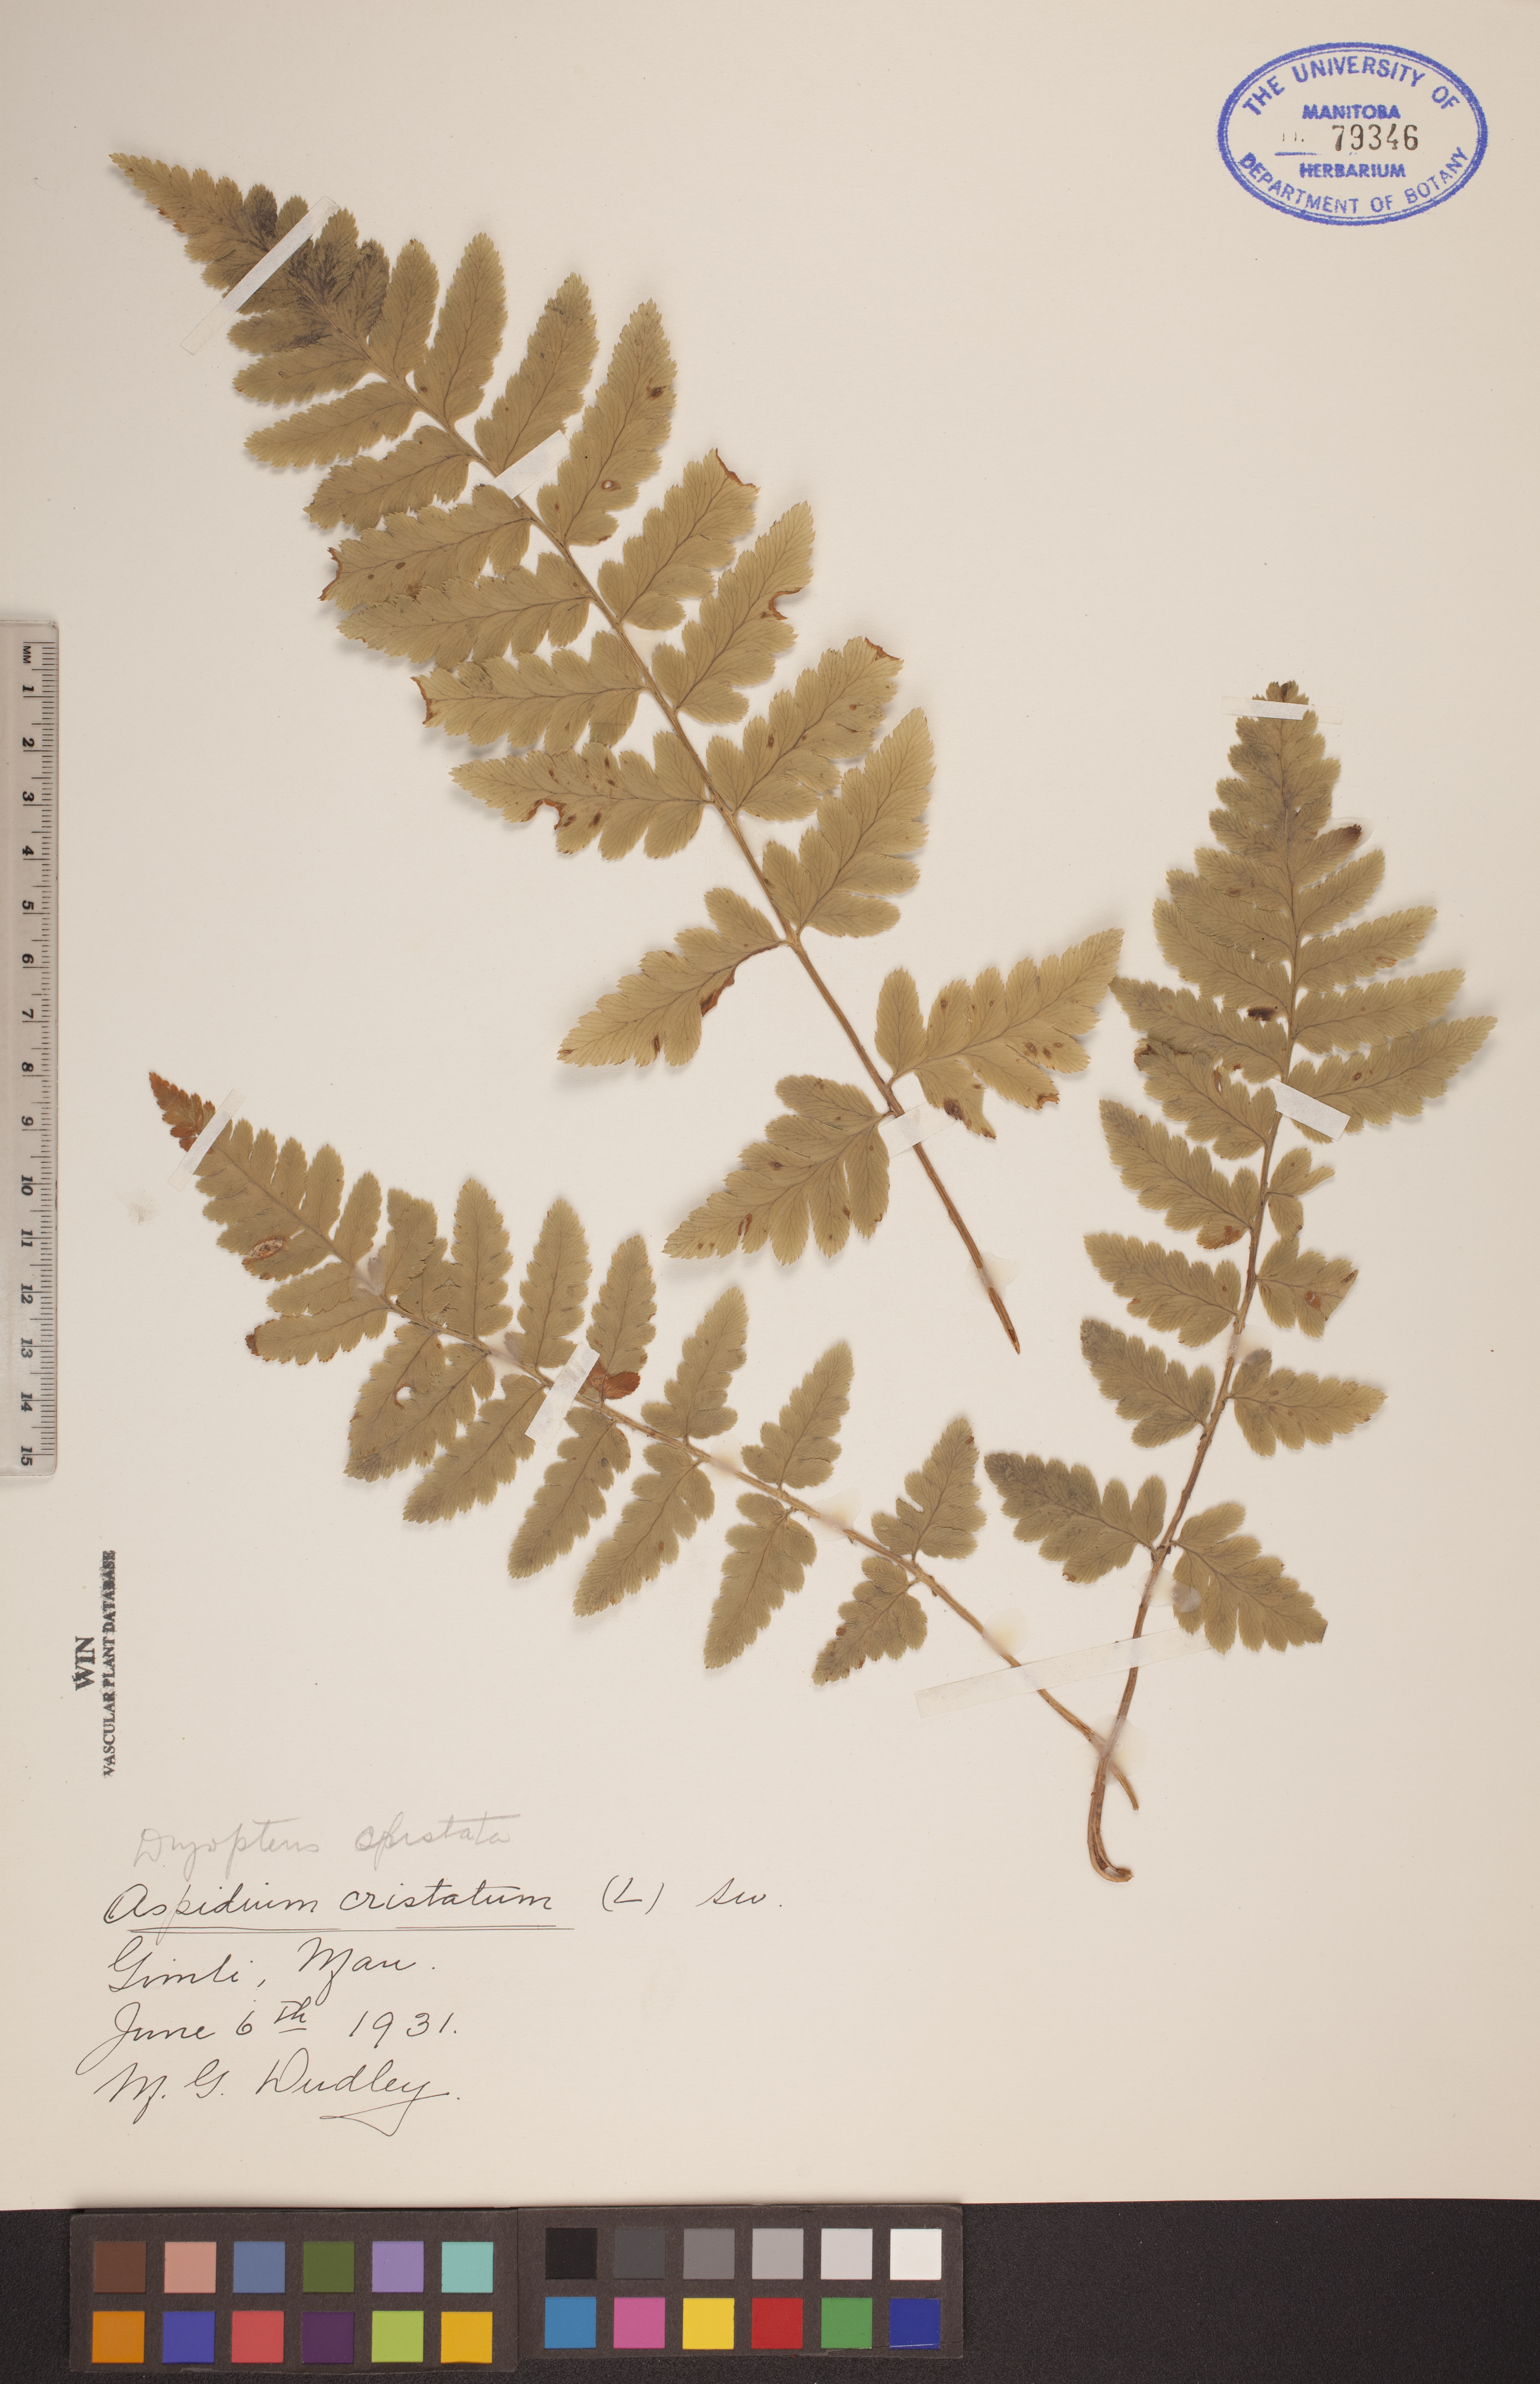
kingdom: Plantae
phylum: Tracheophyta
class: Polypodiopsida
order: Polypodiales
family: Dryopteridaceae
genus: Dryopteris
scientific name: Dryopteris cristata
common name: Crested wood fern
